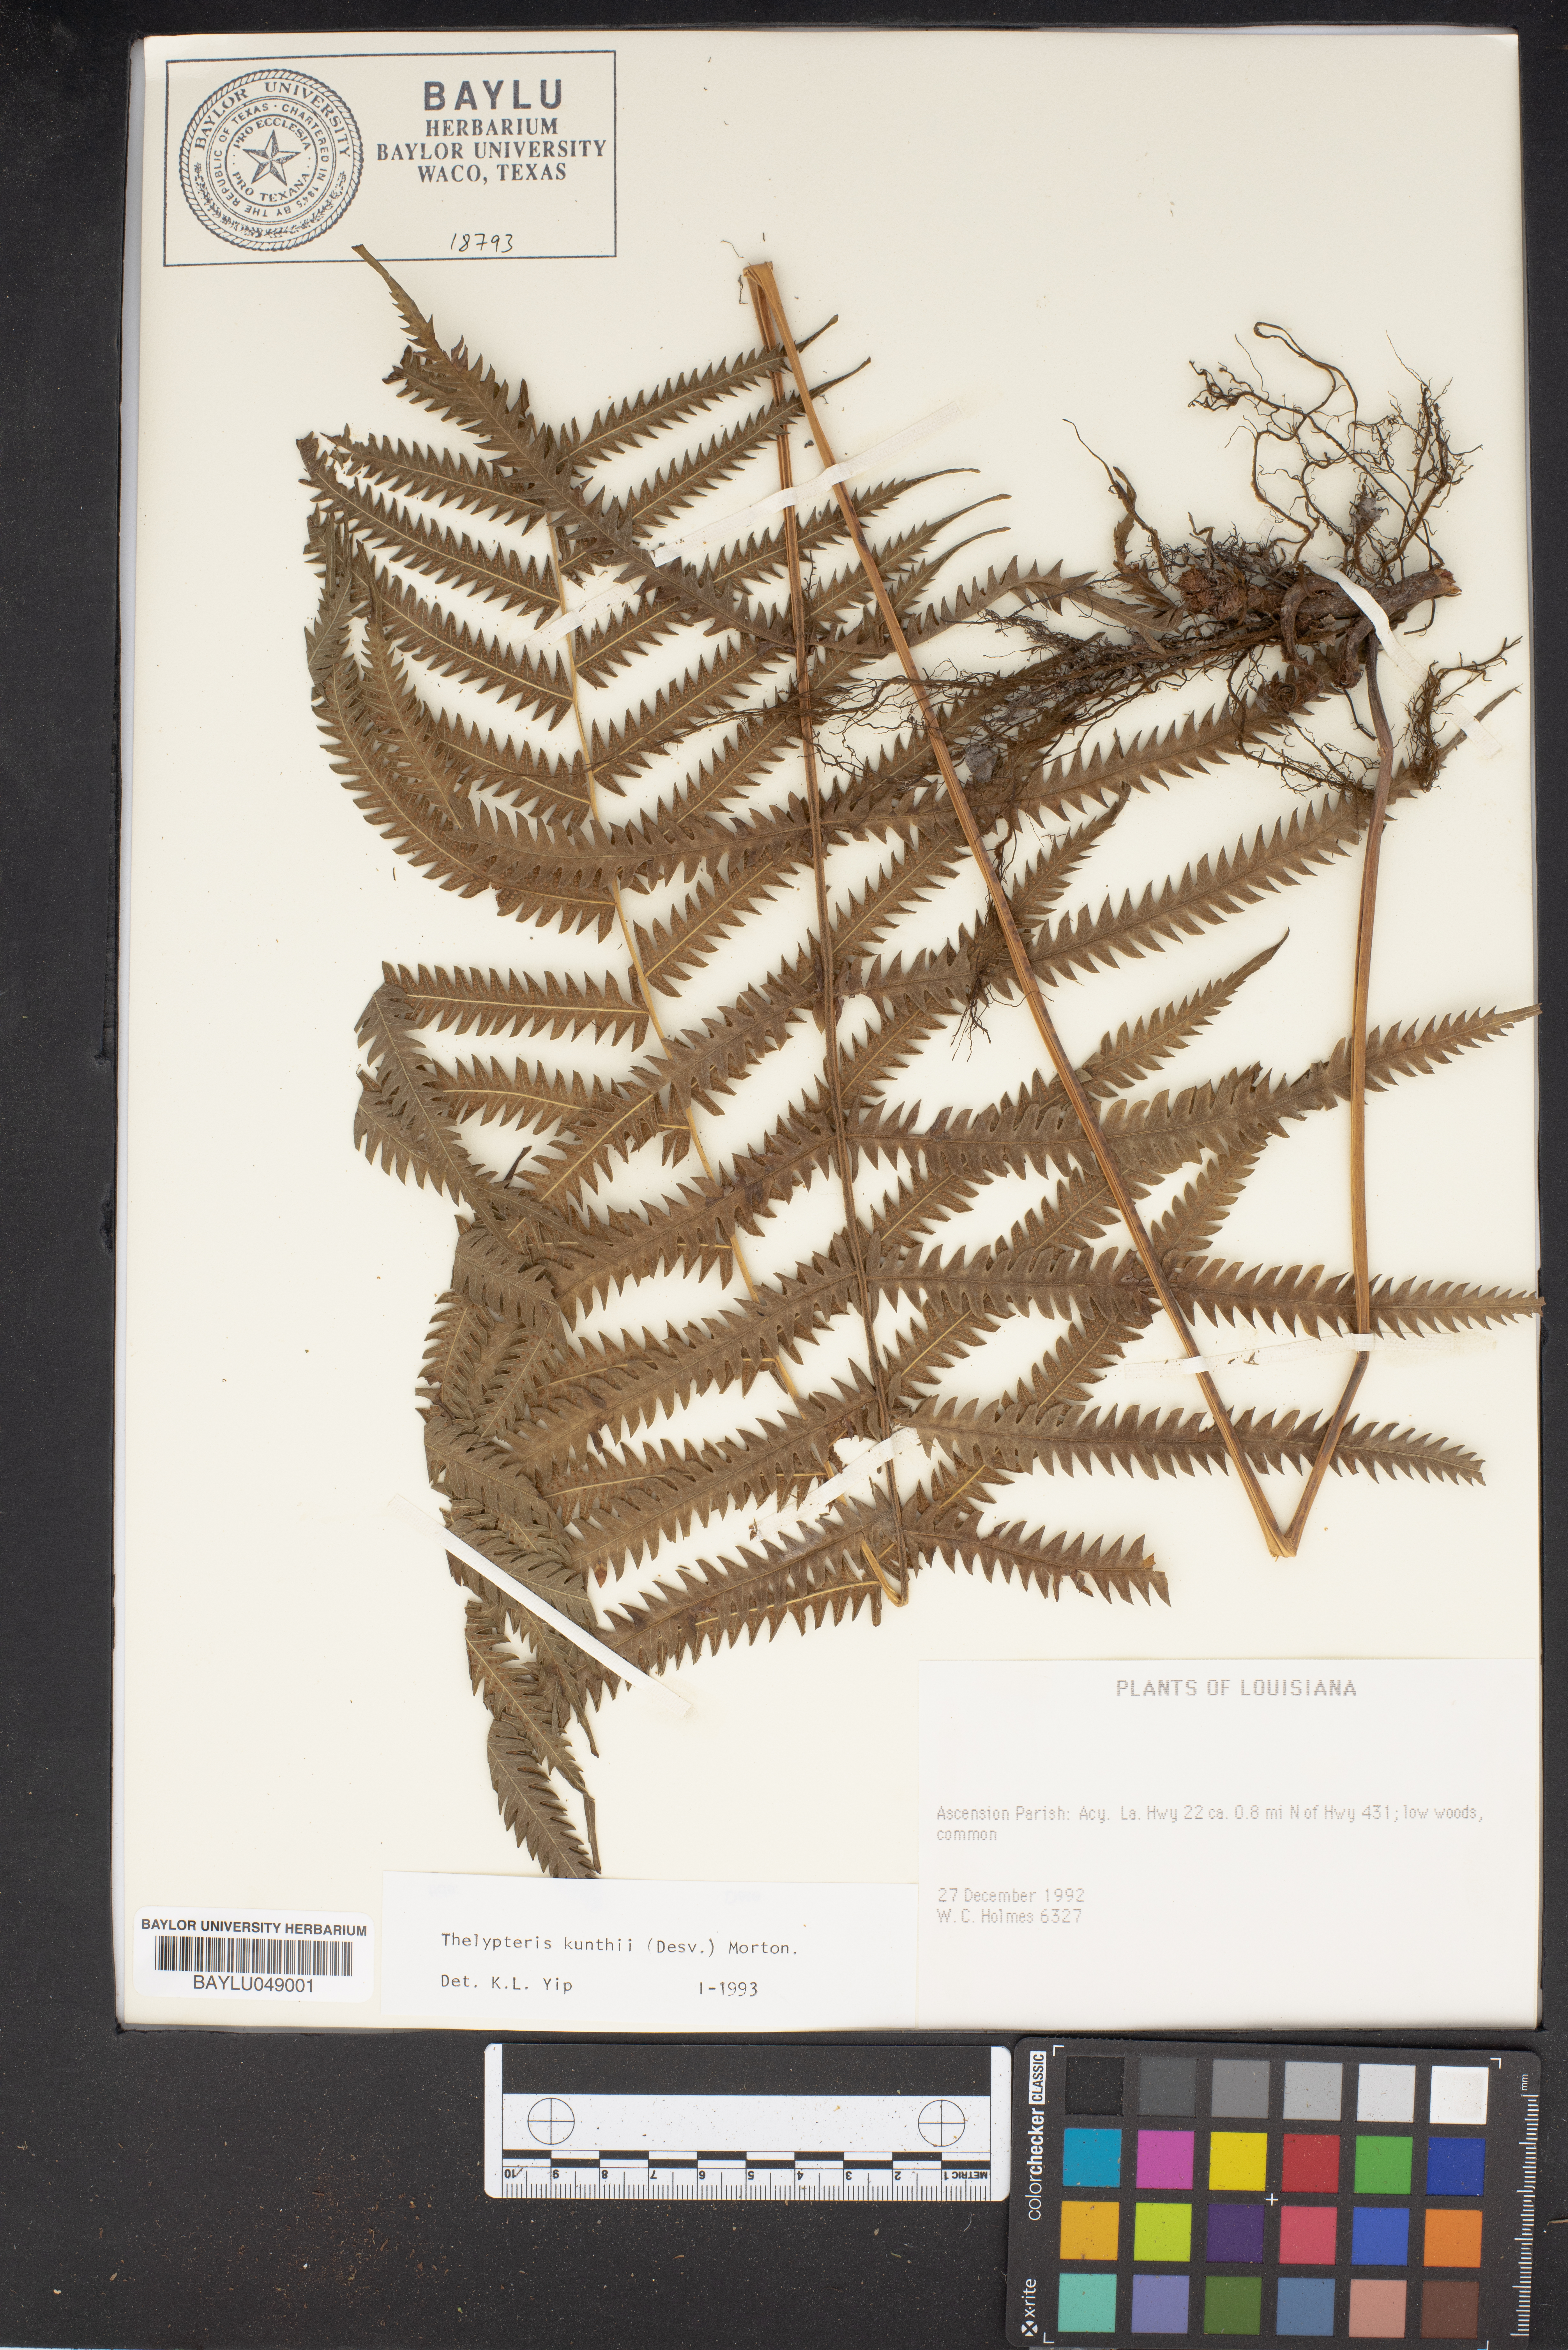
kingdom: Plantae
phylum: Tracheophyta
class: Polypodiopsida
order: Polypodiales
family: Thelypteridaceae
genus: Pelazoneuron
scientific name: Pelazoneuron kunthii
